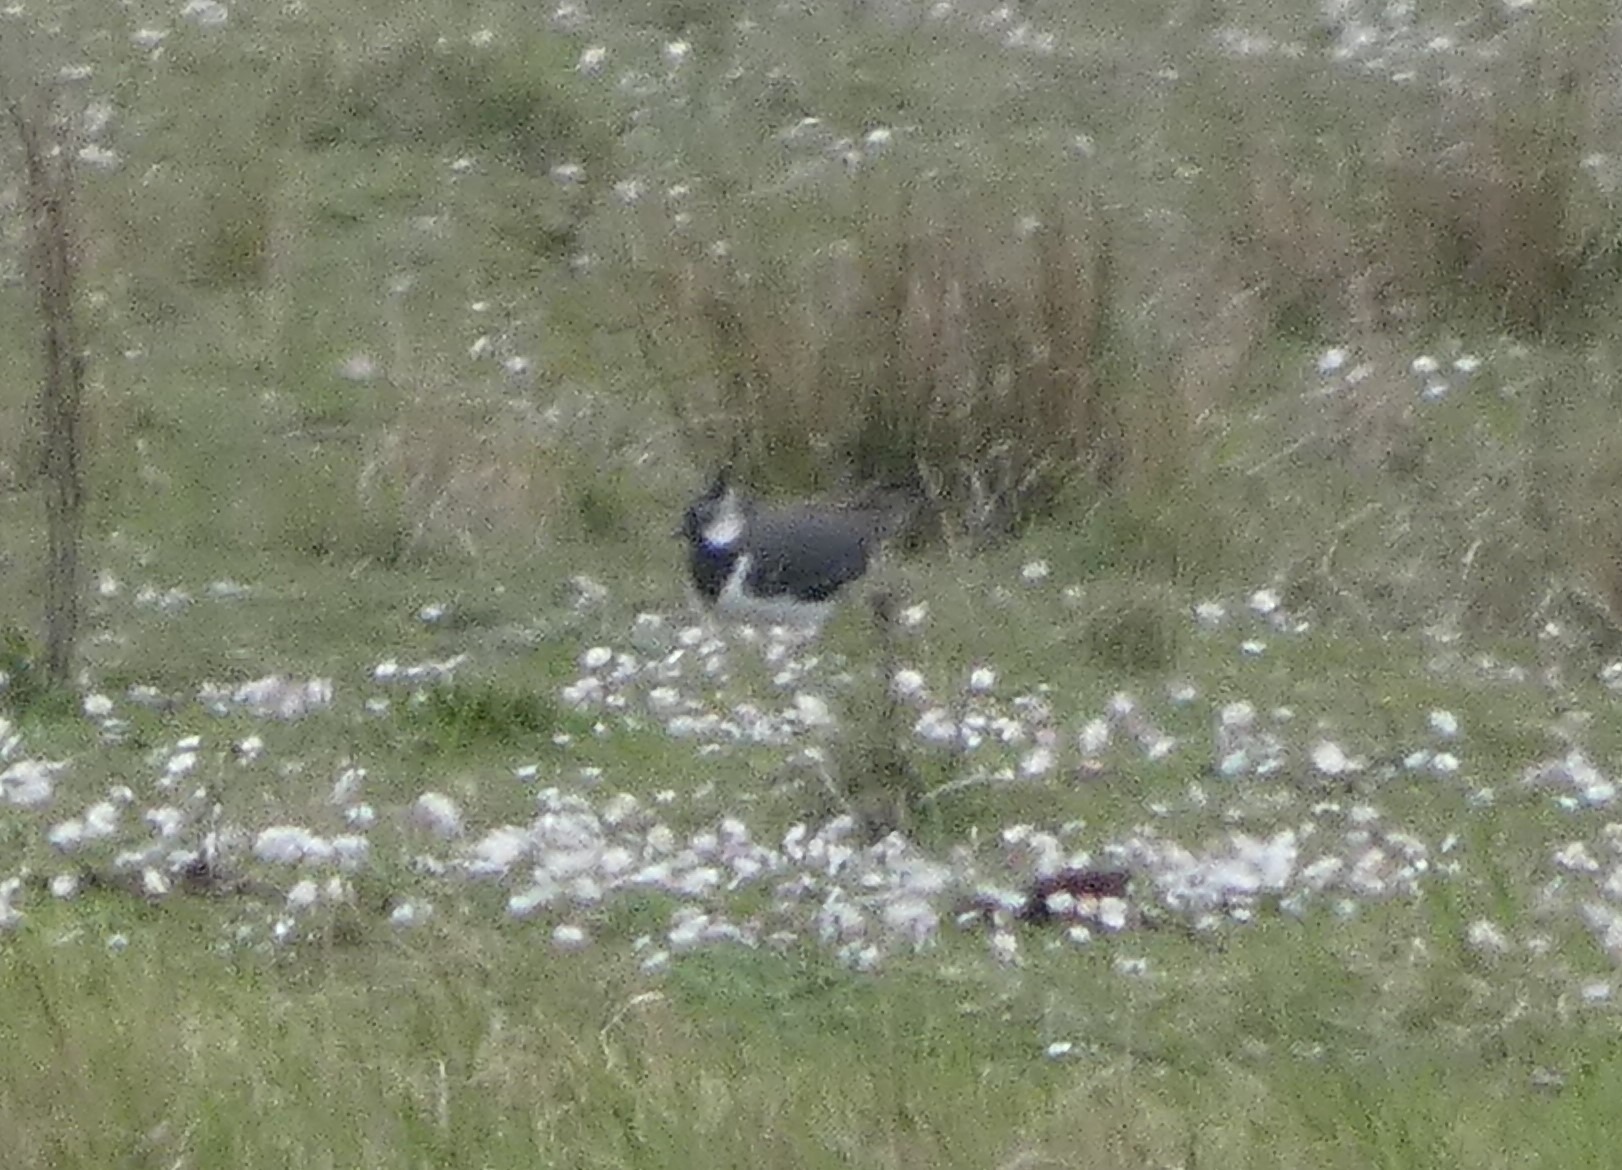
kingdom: Animalia
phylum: Chordata
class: Aves
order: Charadriiformes
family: Charadriidae
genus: Vanellus
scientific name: Vanellus vanellus
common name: Vibe
